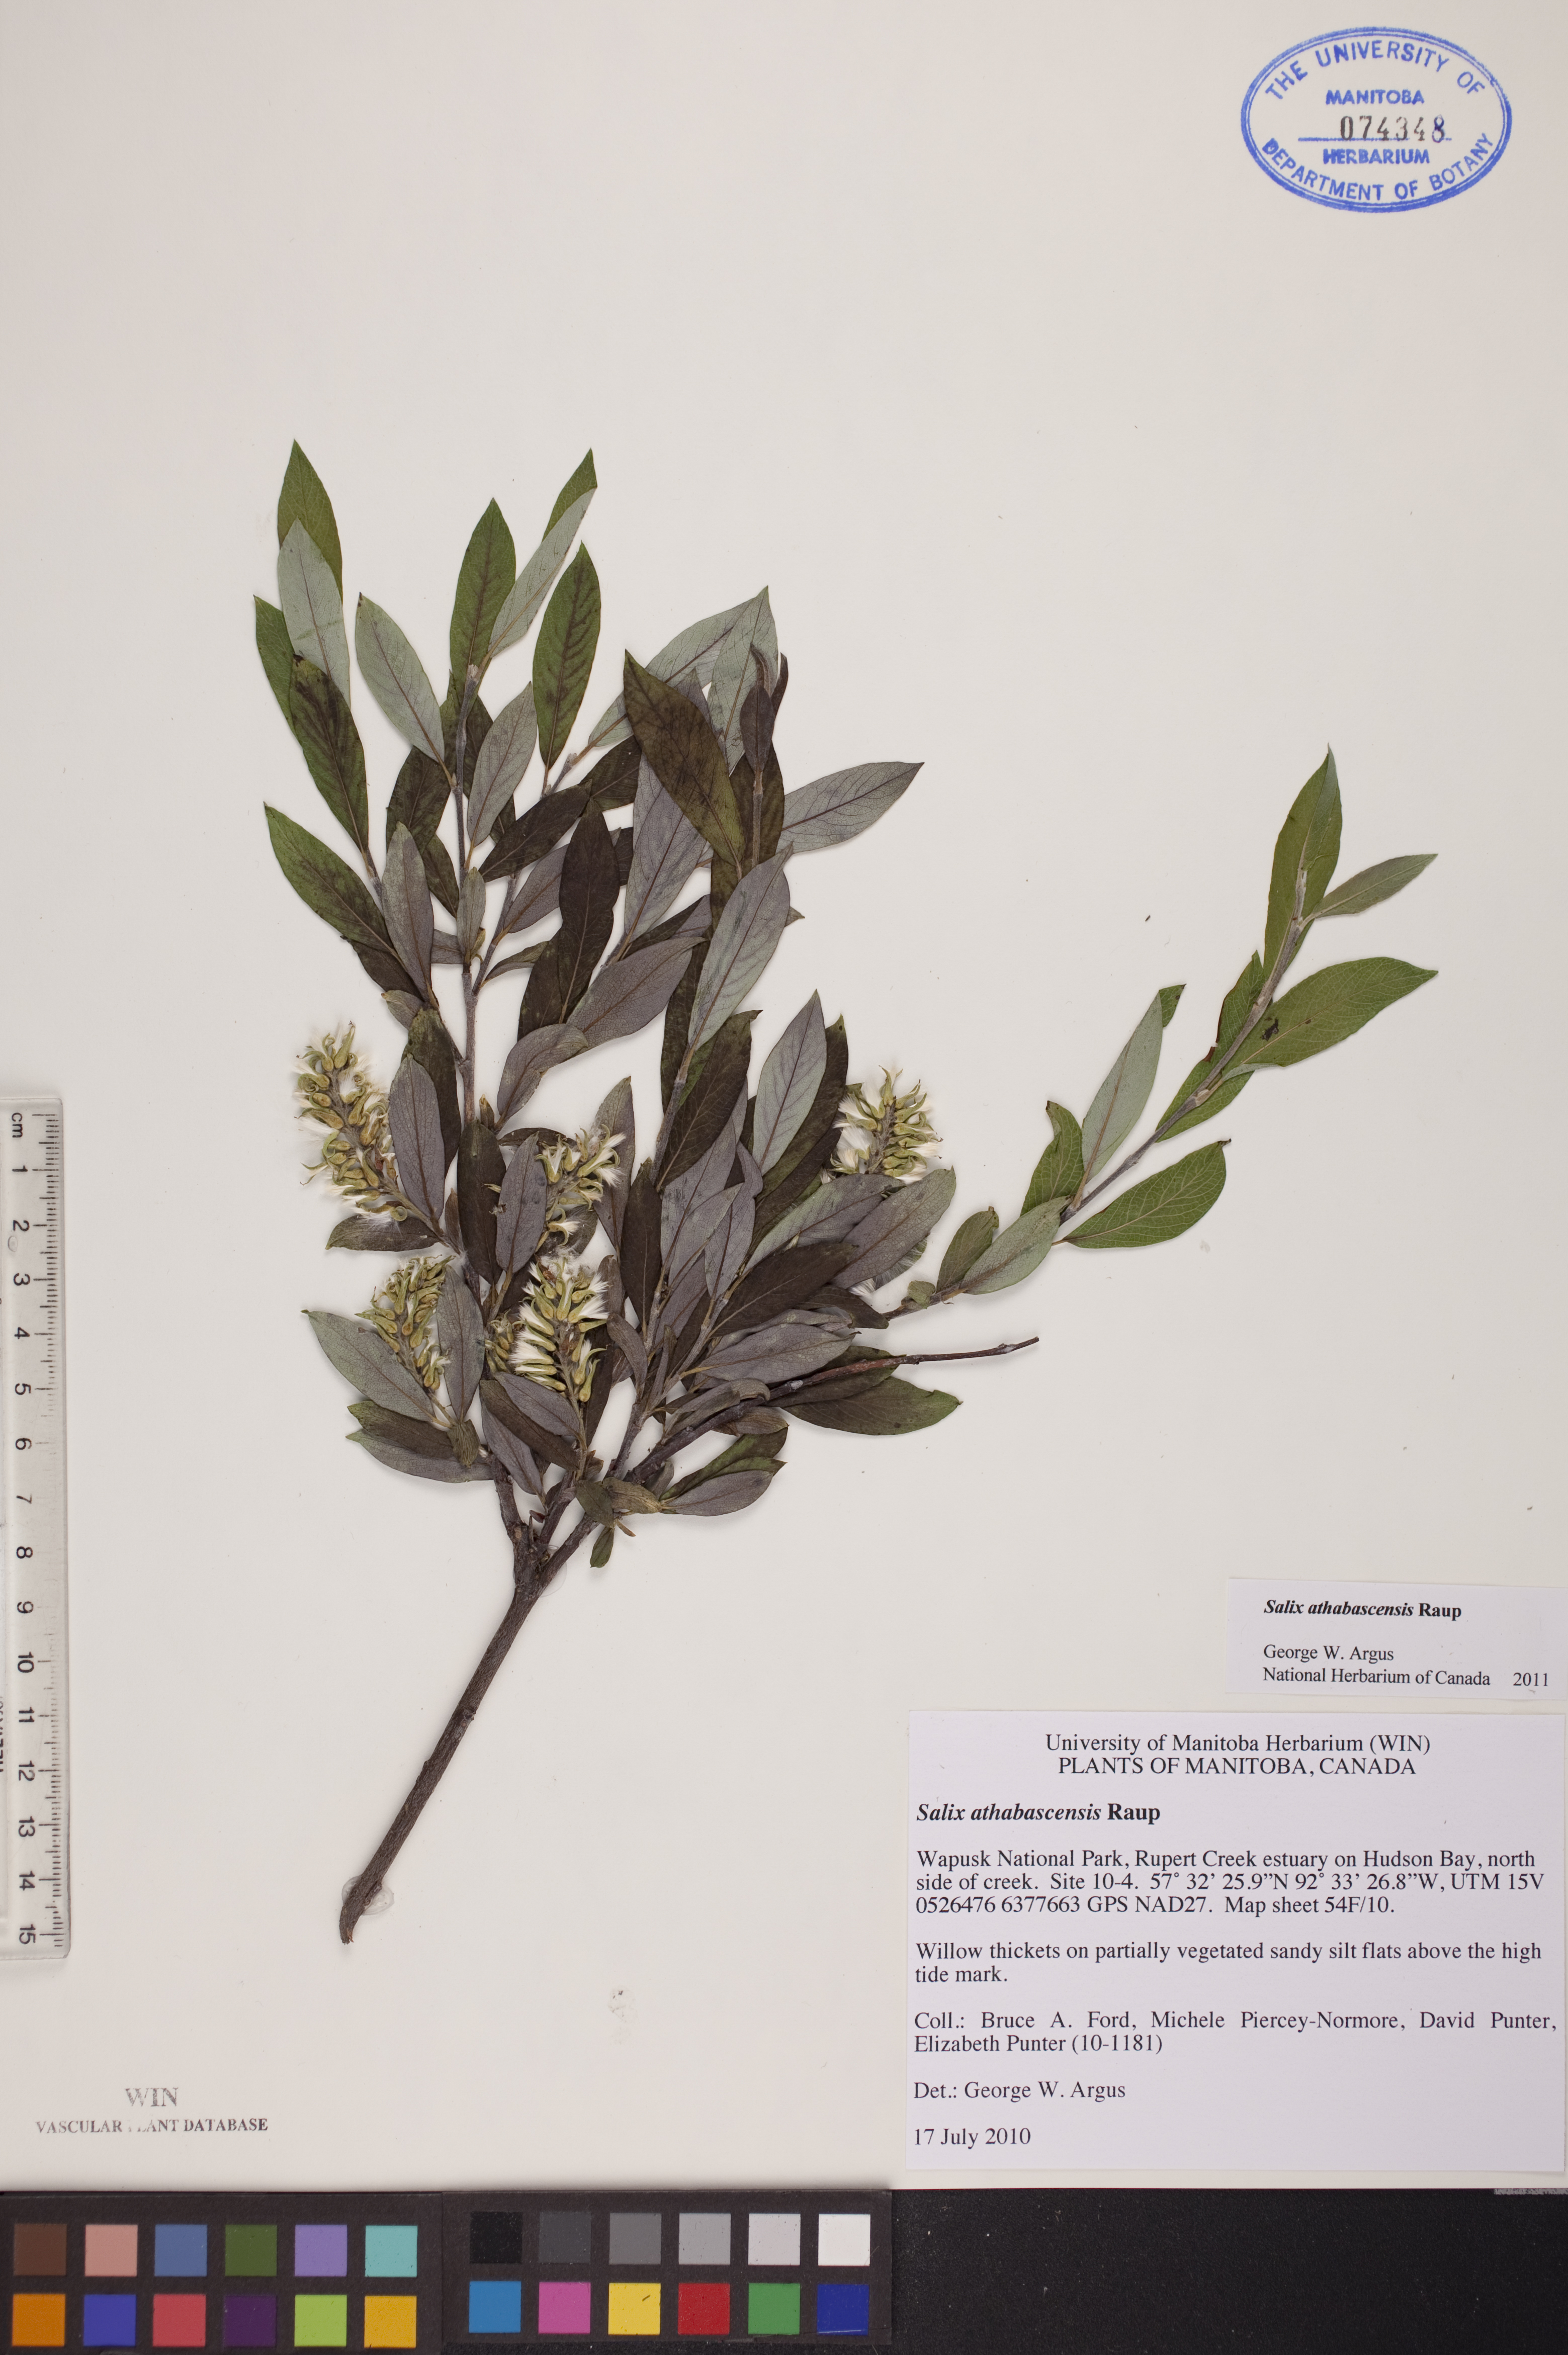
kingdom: Plantae
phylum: Tracheophyta
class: Magnoliopsida
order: Malpighiales
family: Salicaceae
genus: Salix
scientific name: Salix athabascensis
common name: Athabasca willow
